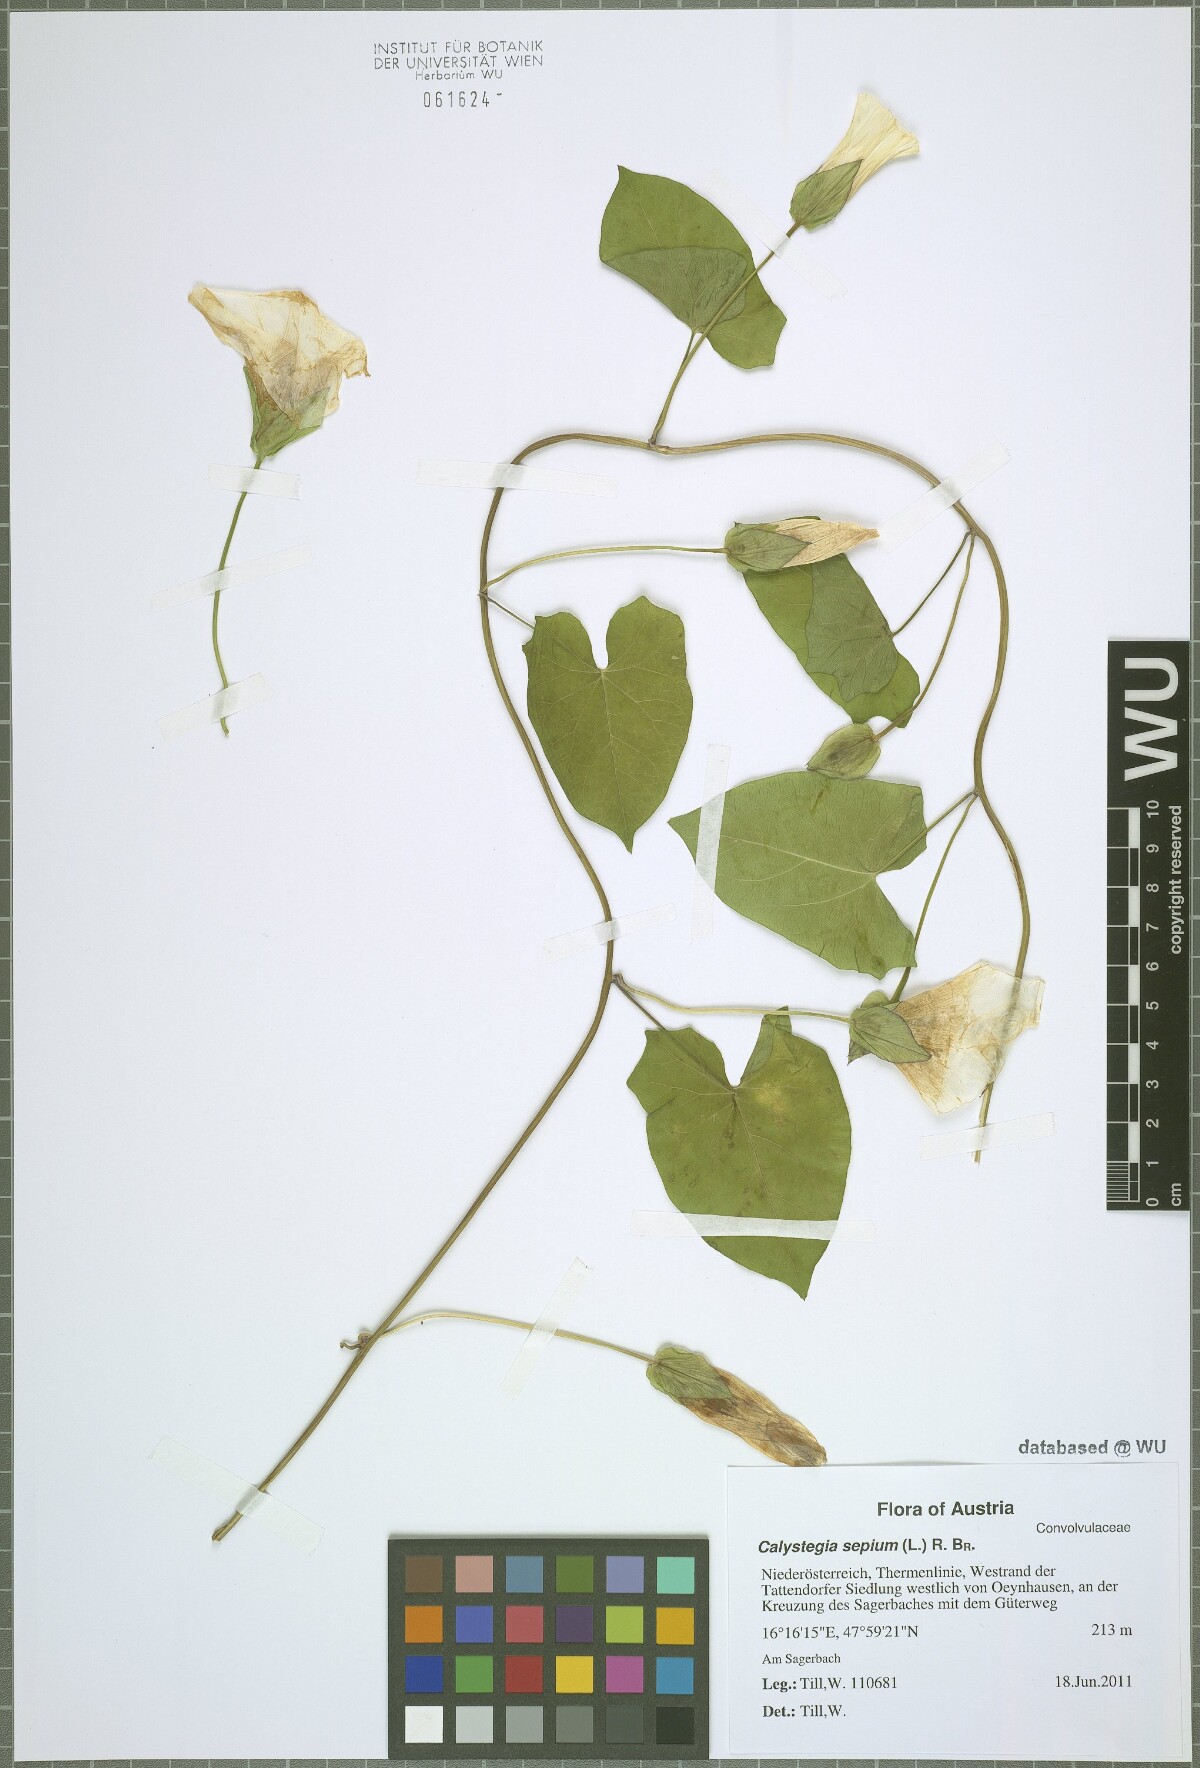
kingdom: Plantae
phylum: Tracheophyta
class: Magnoliopsida
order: Solanales
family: Convolvulaceae
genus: Calystegia
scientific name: Calystegia sepium
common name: Hedge bindweed
